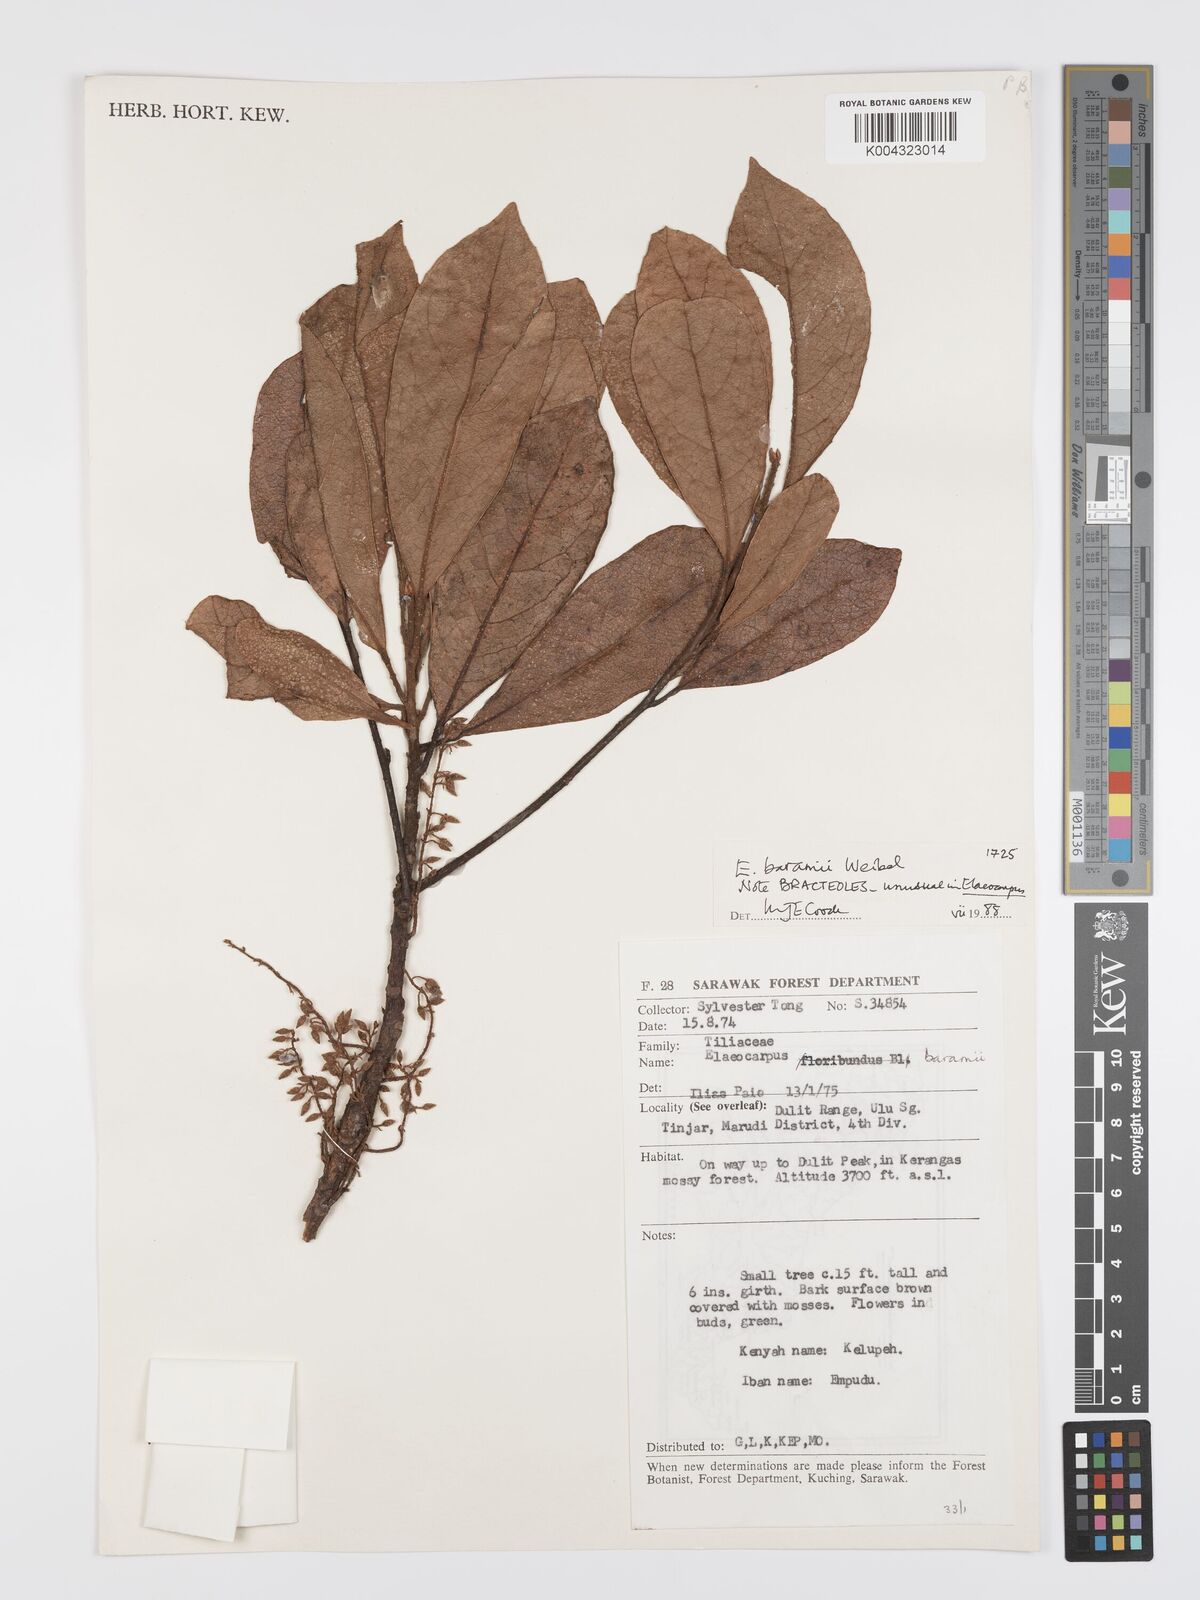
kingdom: Plantae
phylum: Tracheophyta
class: Magnoliopsida
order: Oxalidales
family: Elaeocarpaceae
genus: Elaeocarpus
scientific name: Elaeocarpus baramii
